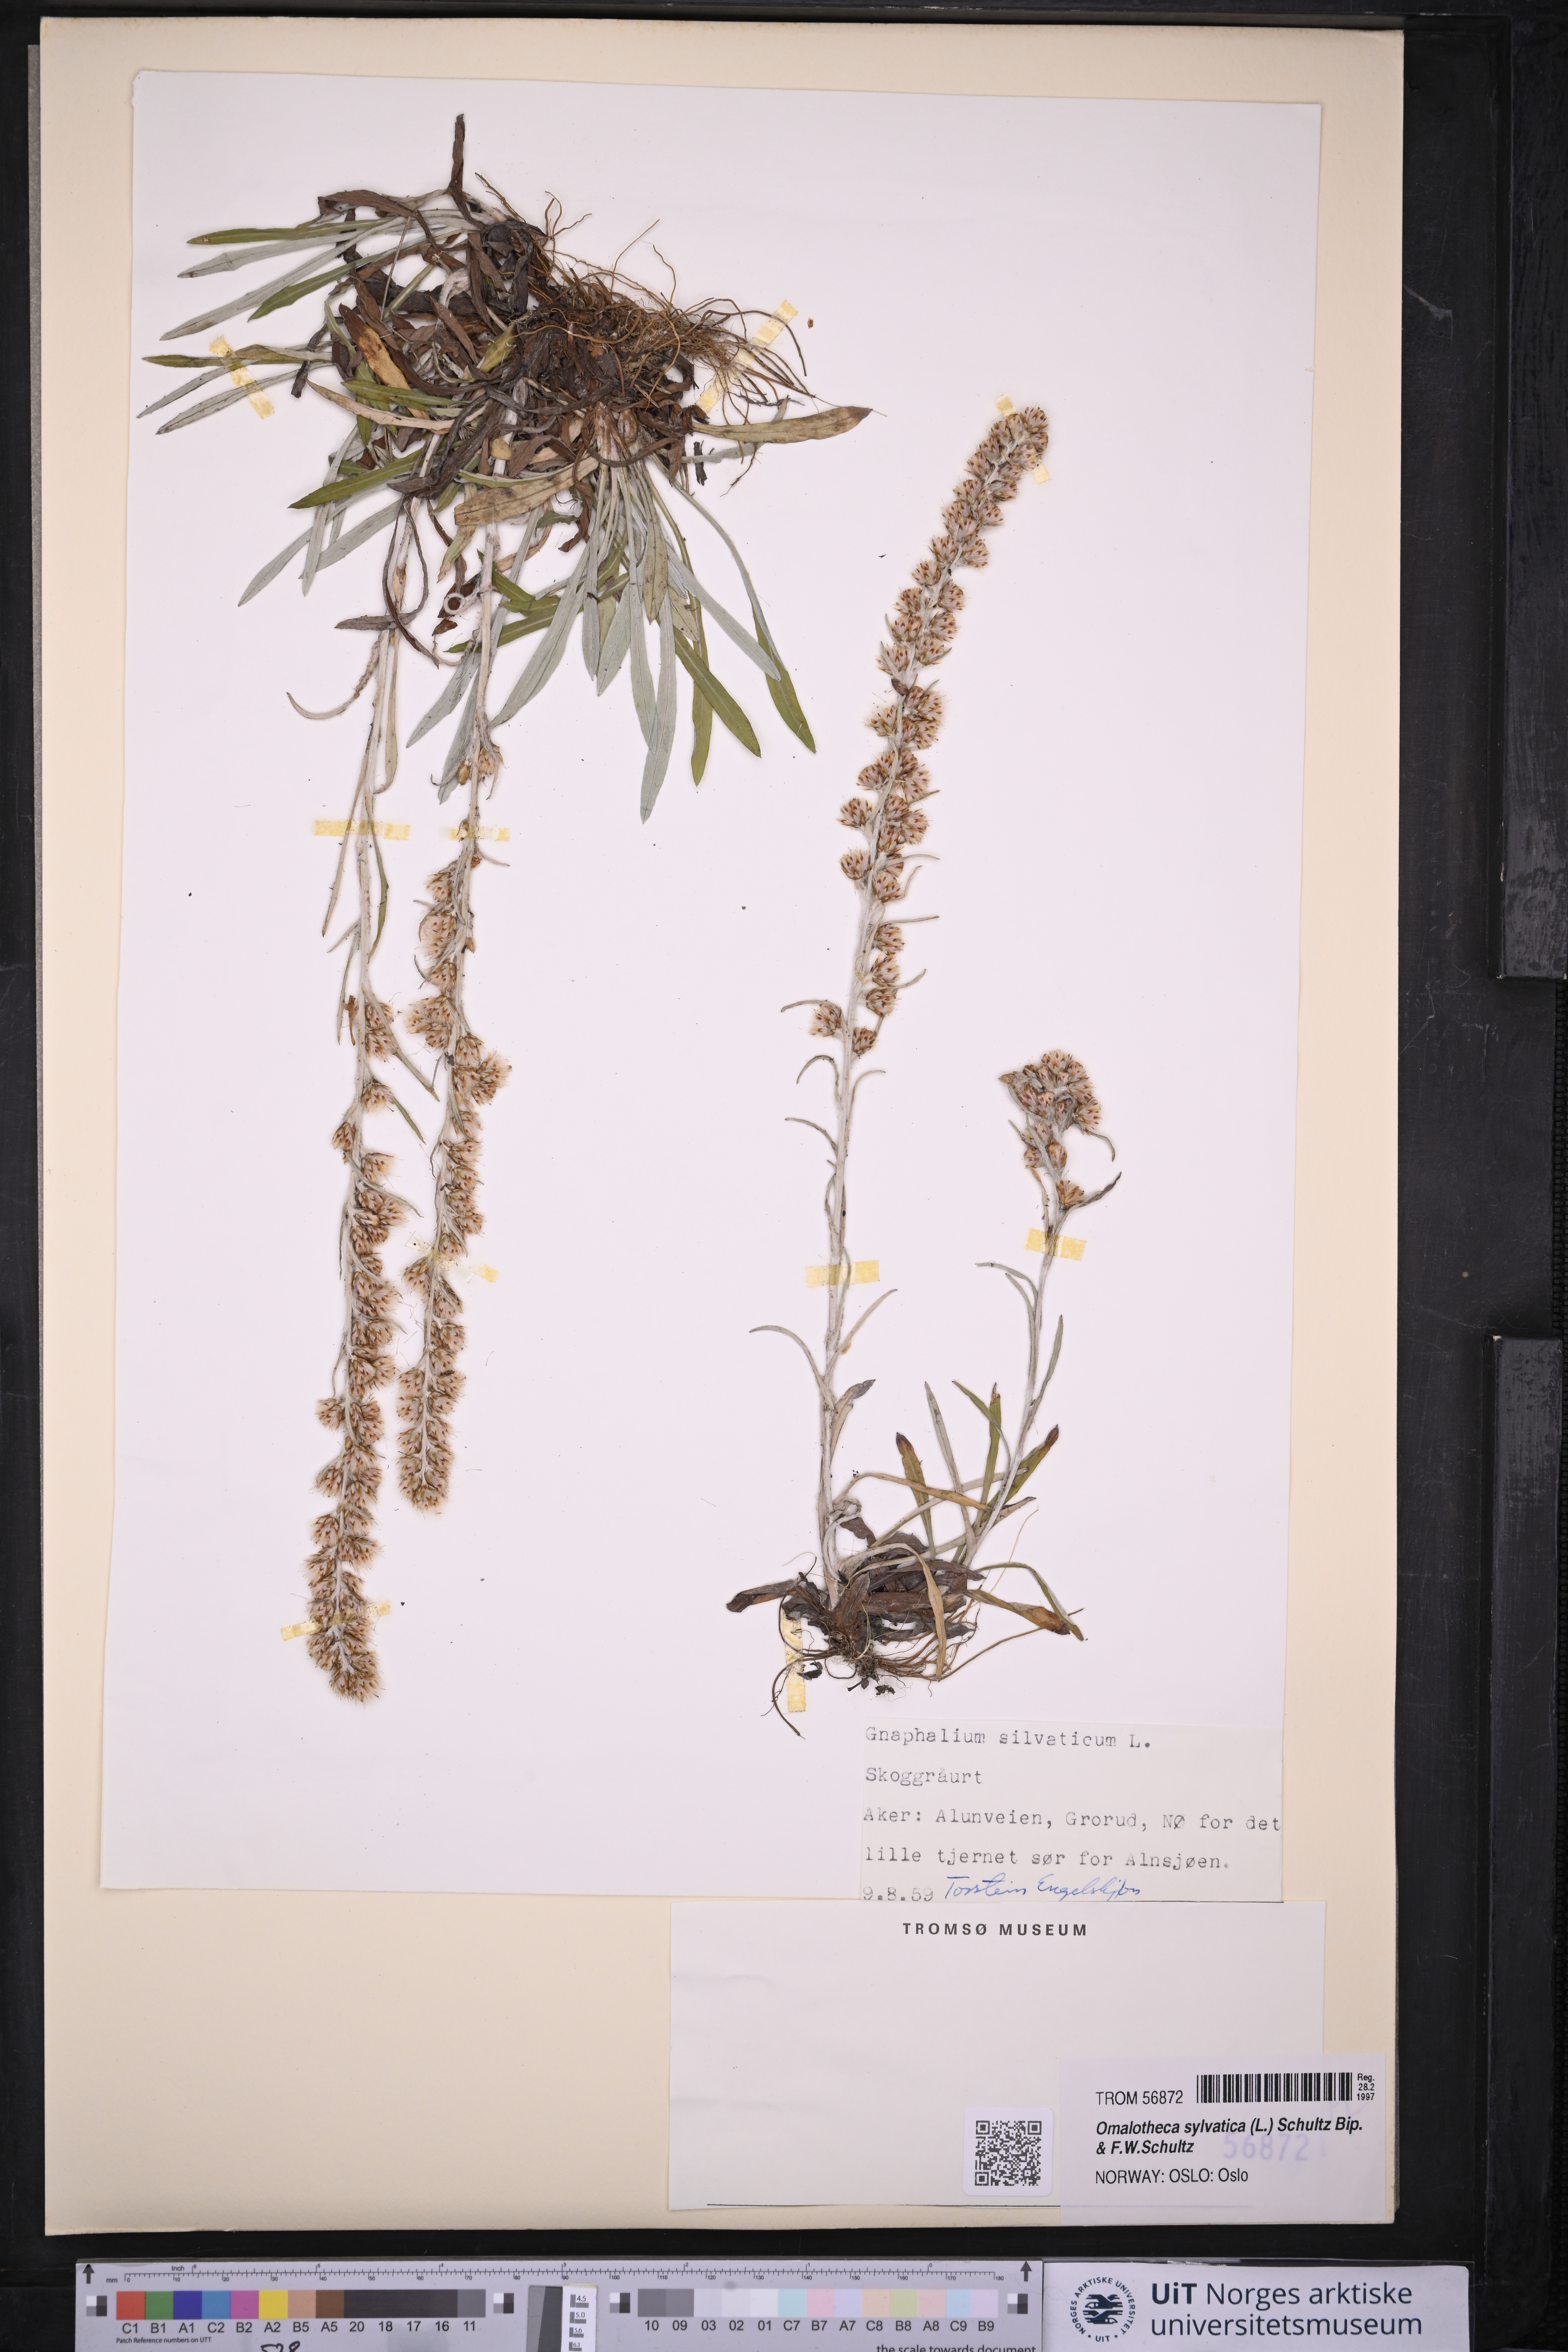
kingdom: Plantae
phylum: Tracheophyta
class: Magnoliopsida
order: Asterales
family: Asteraceae
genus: Omalotheca
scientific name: Omalotheca sylvatica
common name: Heath cudweed
